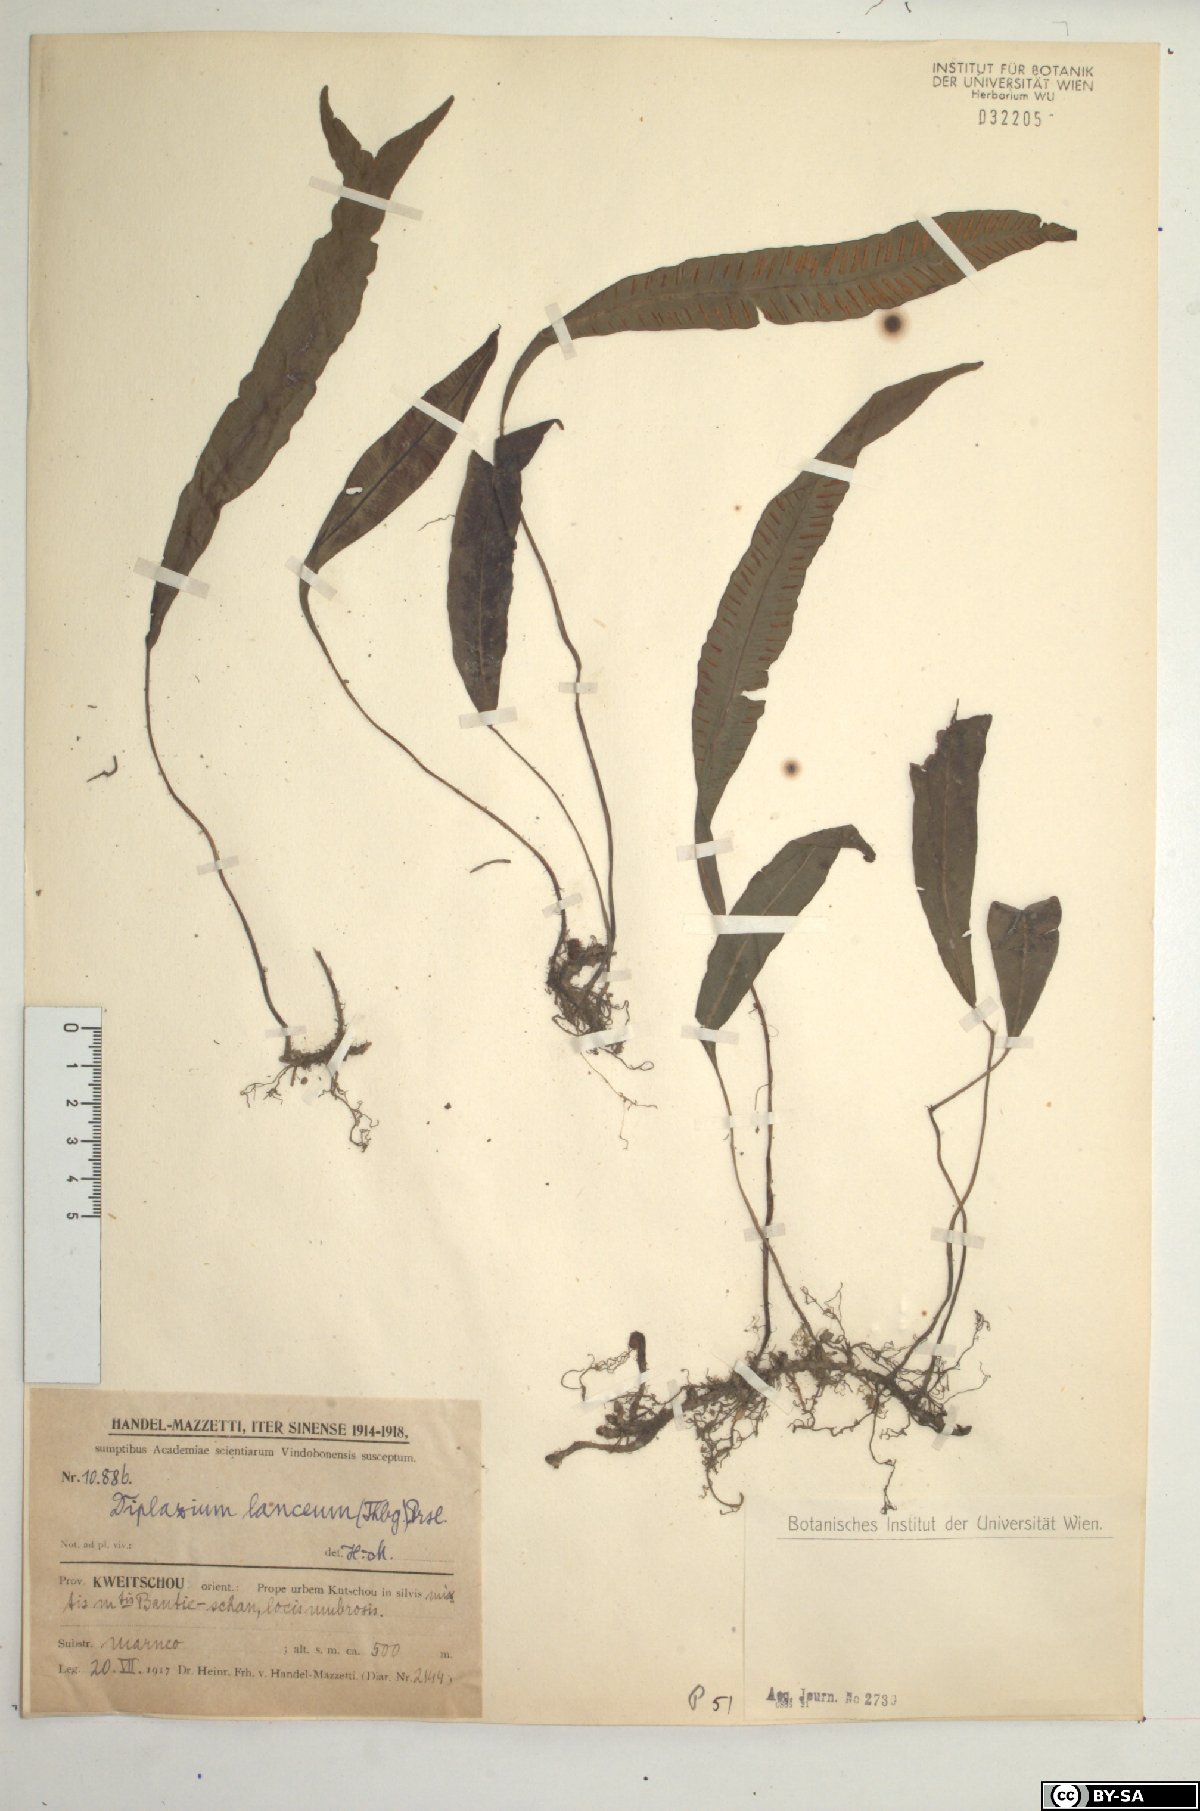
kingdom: Plantae
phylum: Tracheophyta
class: Polypodiopsida
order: Polypodiales
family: Athyriaceae
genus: Deparia
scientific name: Deparia lancea
